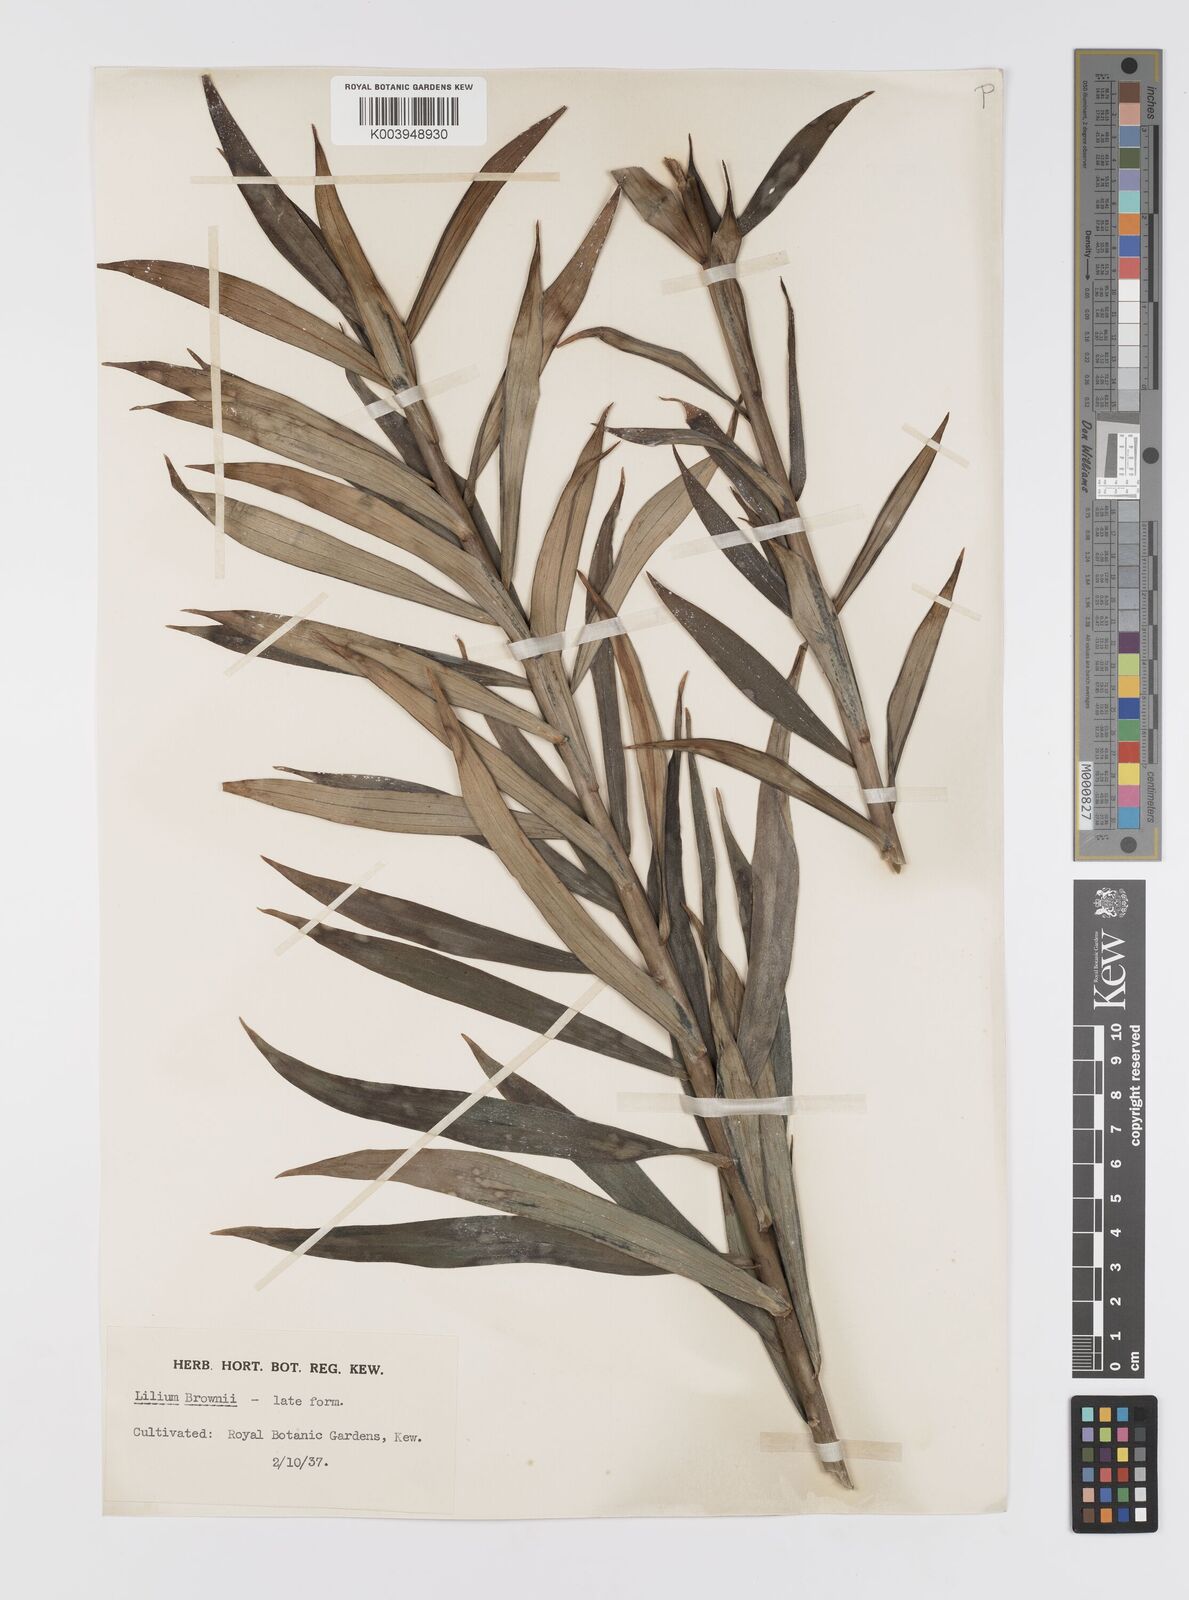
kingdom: Plantae
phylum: Tracheophyta
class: Liliopsida
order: Liliales
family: Liliaceae
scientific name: Liliaceae
